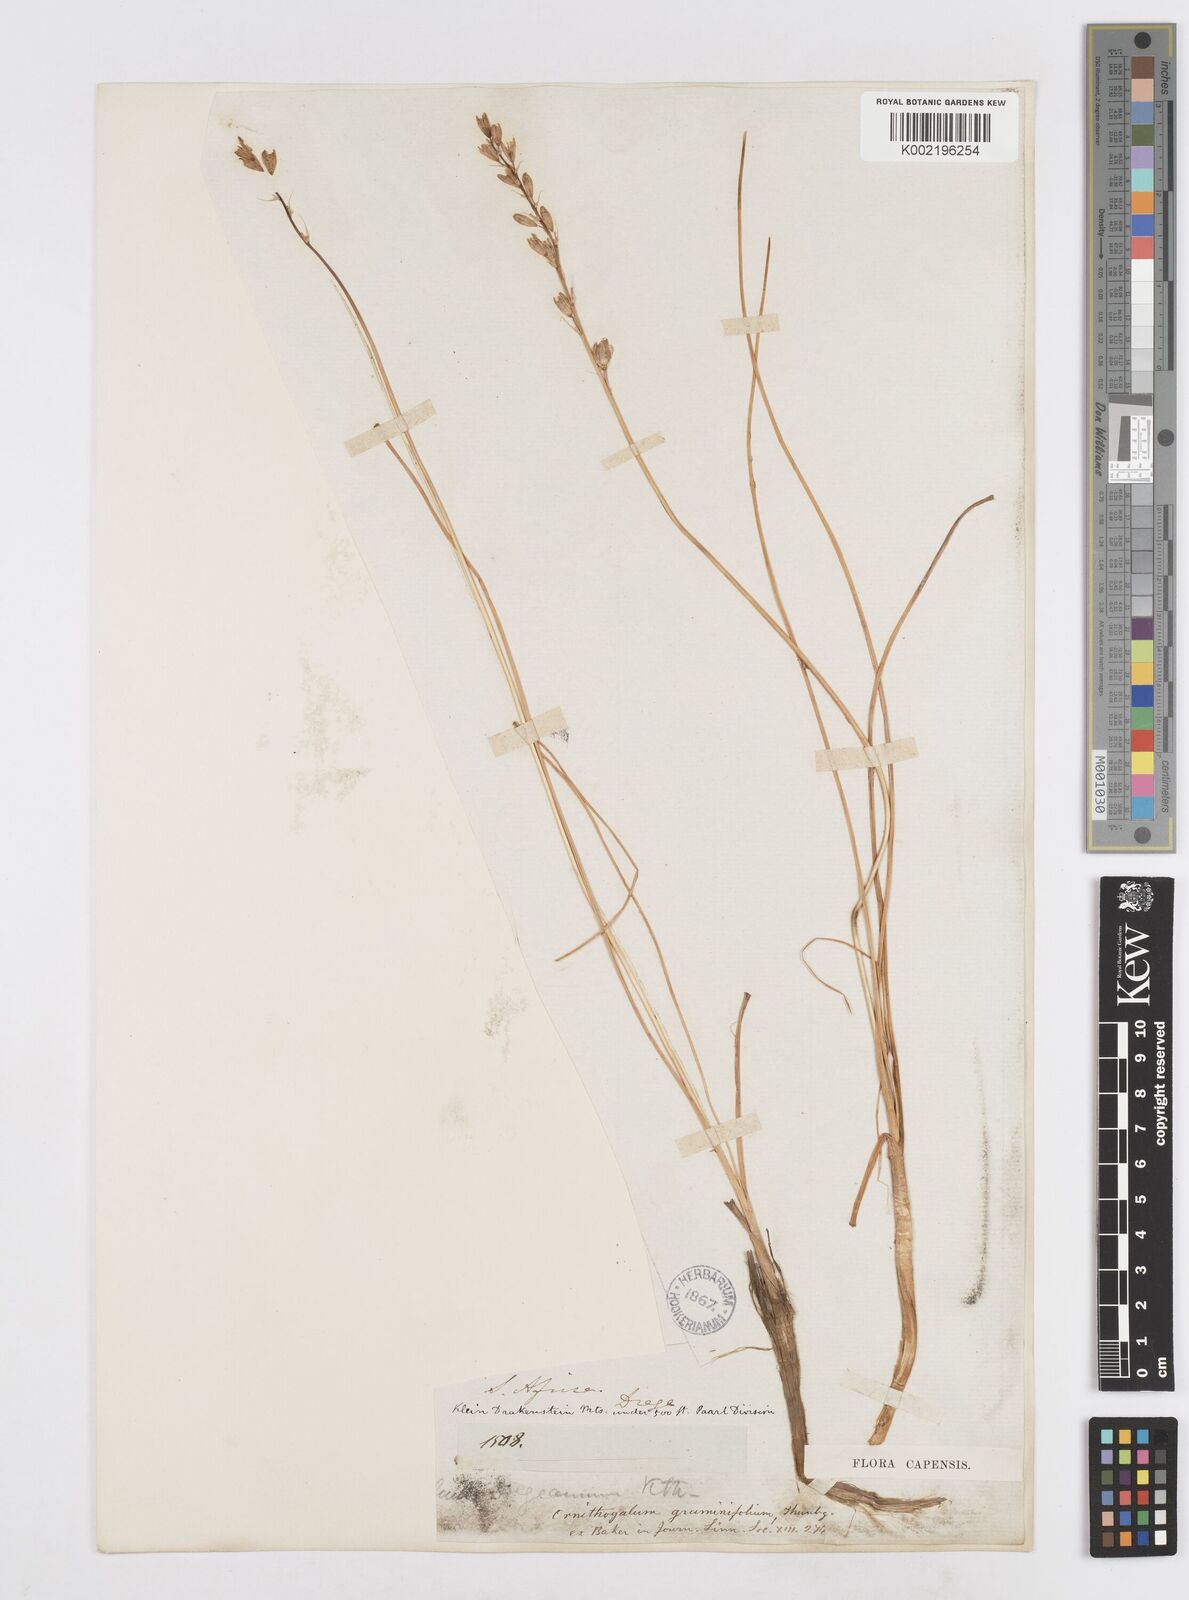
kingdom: Plantae
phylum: Tracheophyta
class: Liliopsida
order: Asparagales
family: Asparagaceae
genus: Ornithogalum
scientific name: Ornithogalum graminifolium
